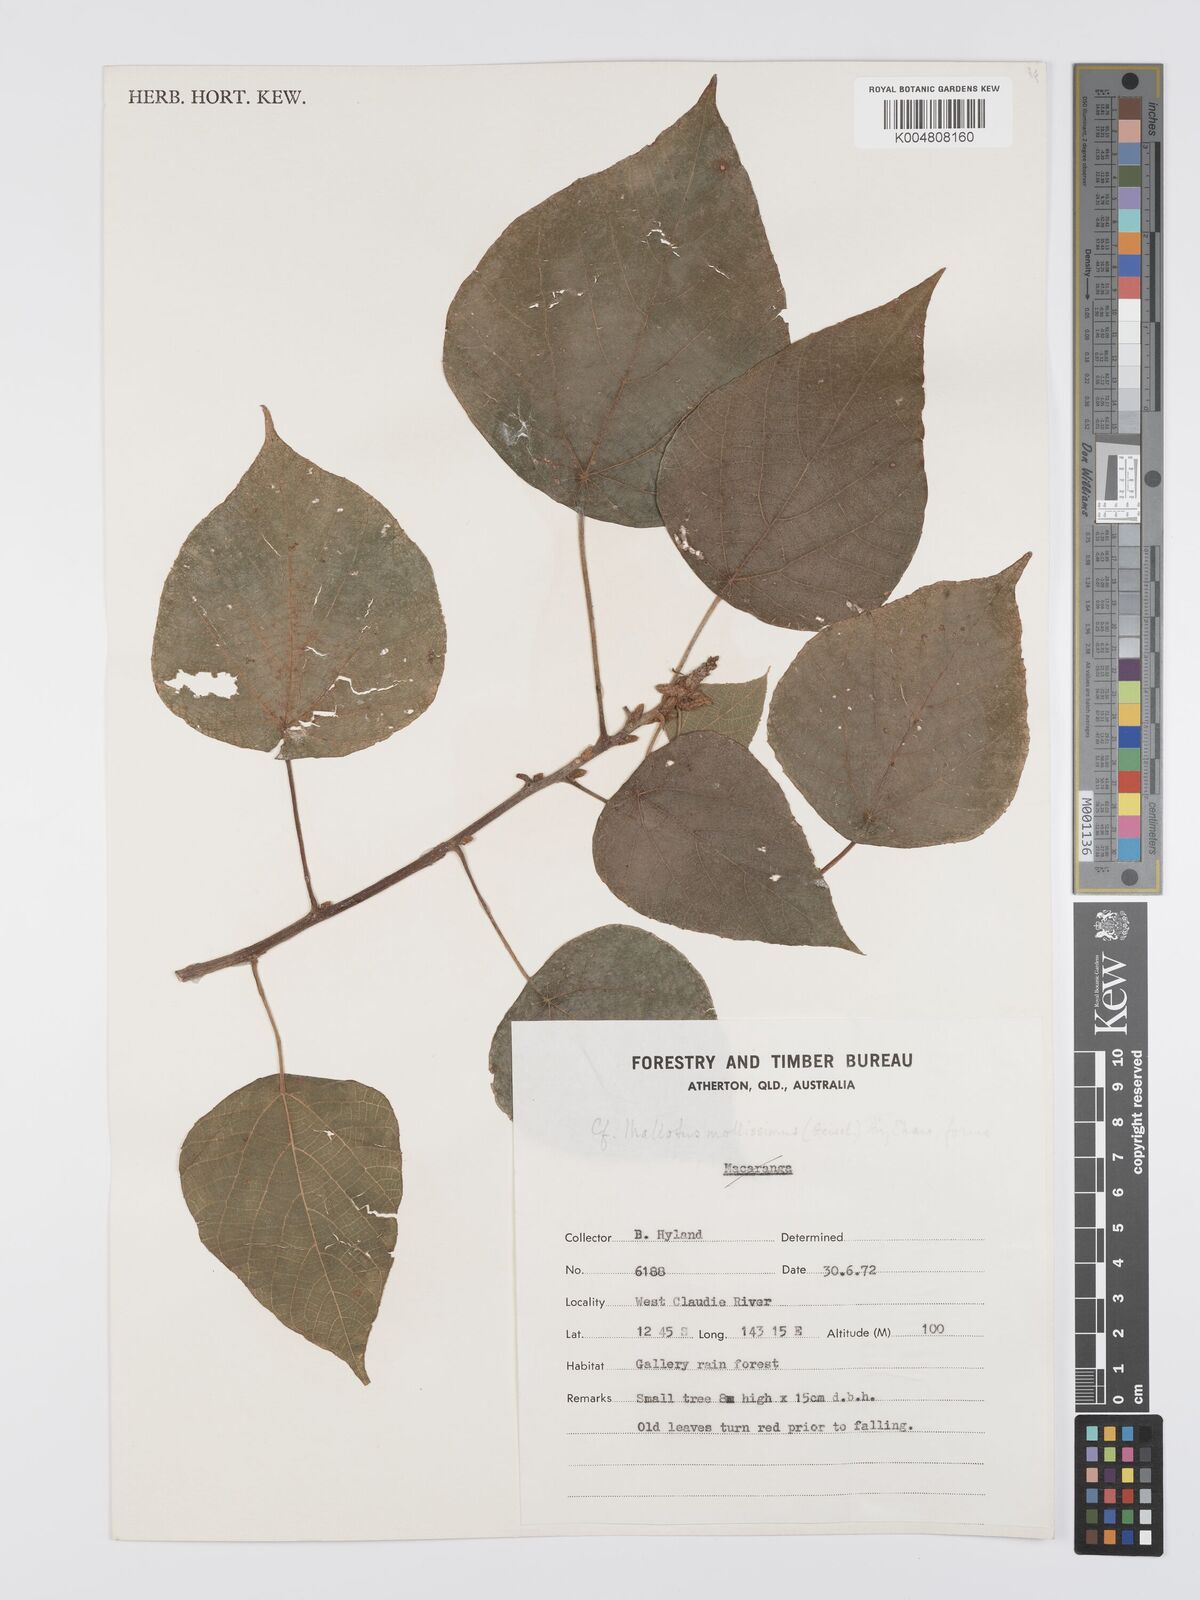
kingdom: Plantae
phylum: Tracheophyta
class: Magnoliopsida
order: Malpighiales
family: Euphorbiaceae
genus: Mallotus
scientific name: Mallotus mollissimus
